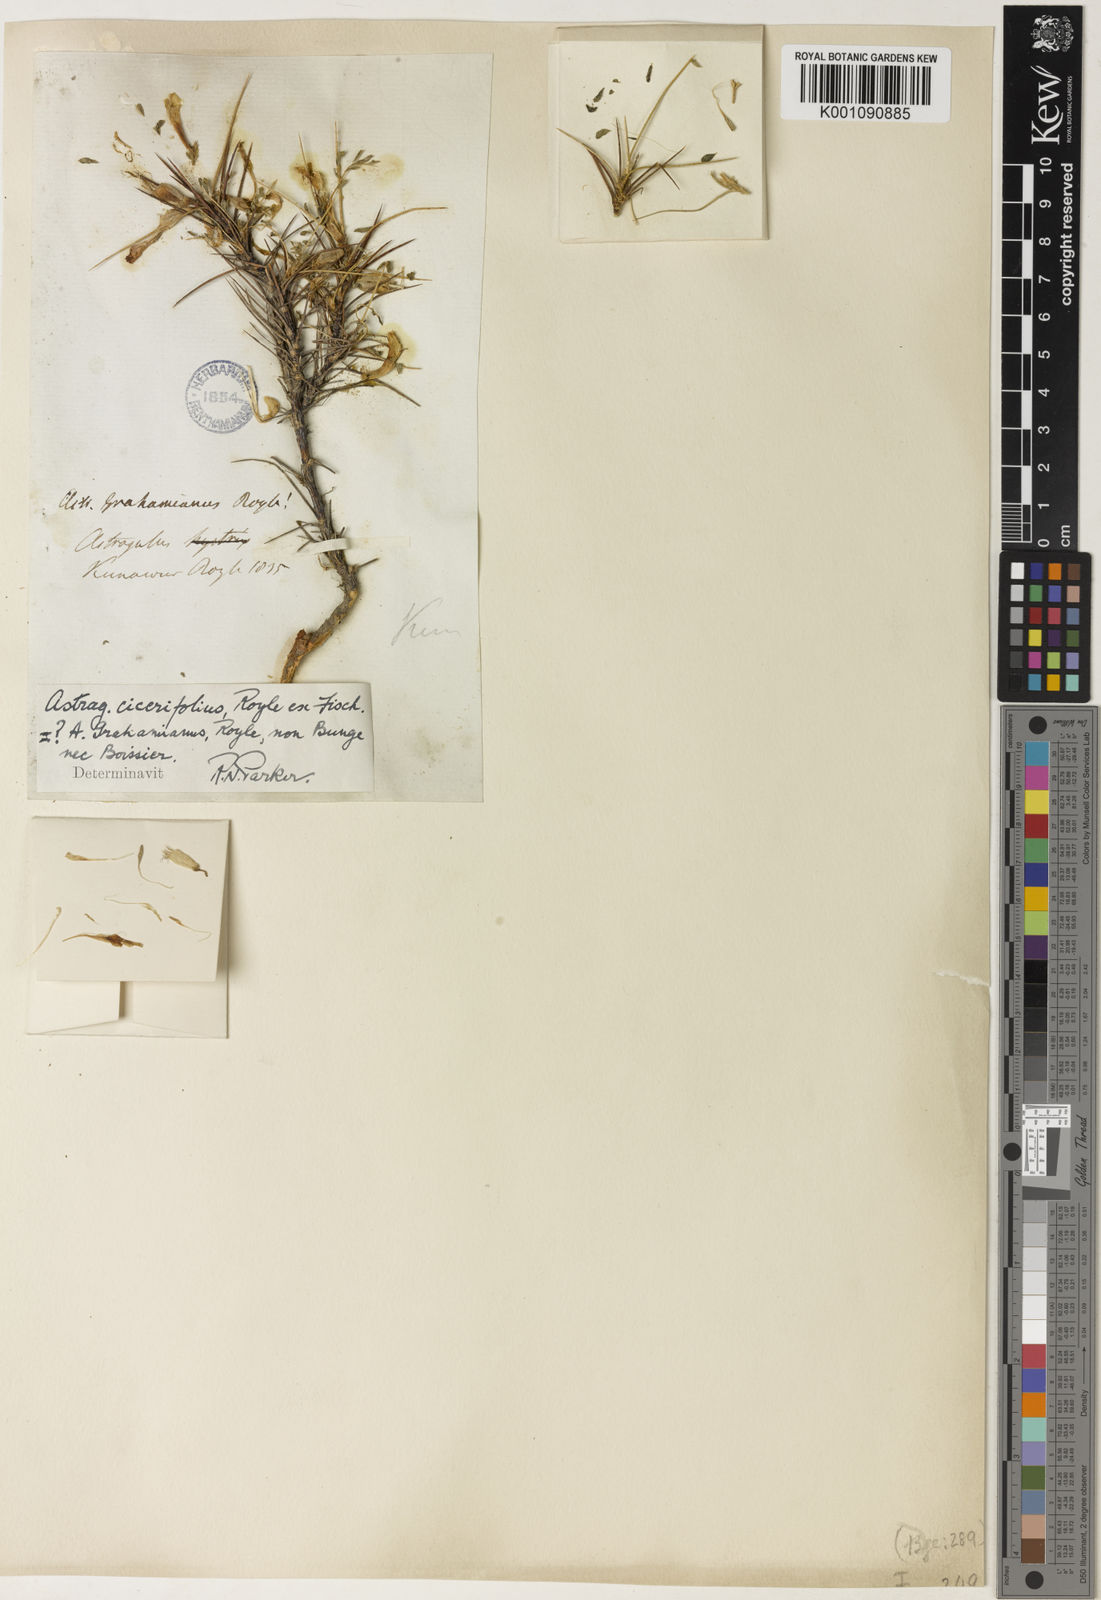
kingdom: Plantae
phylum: Tracheophyta
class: Magnoliopsida
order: Fabales
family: Fabaceae
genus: Astragalus
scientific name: Astragalus
